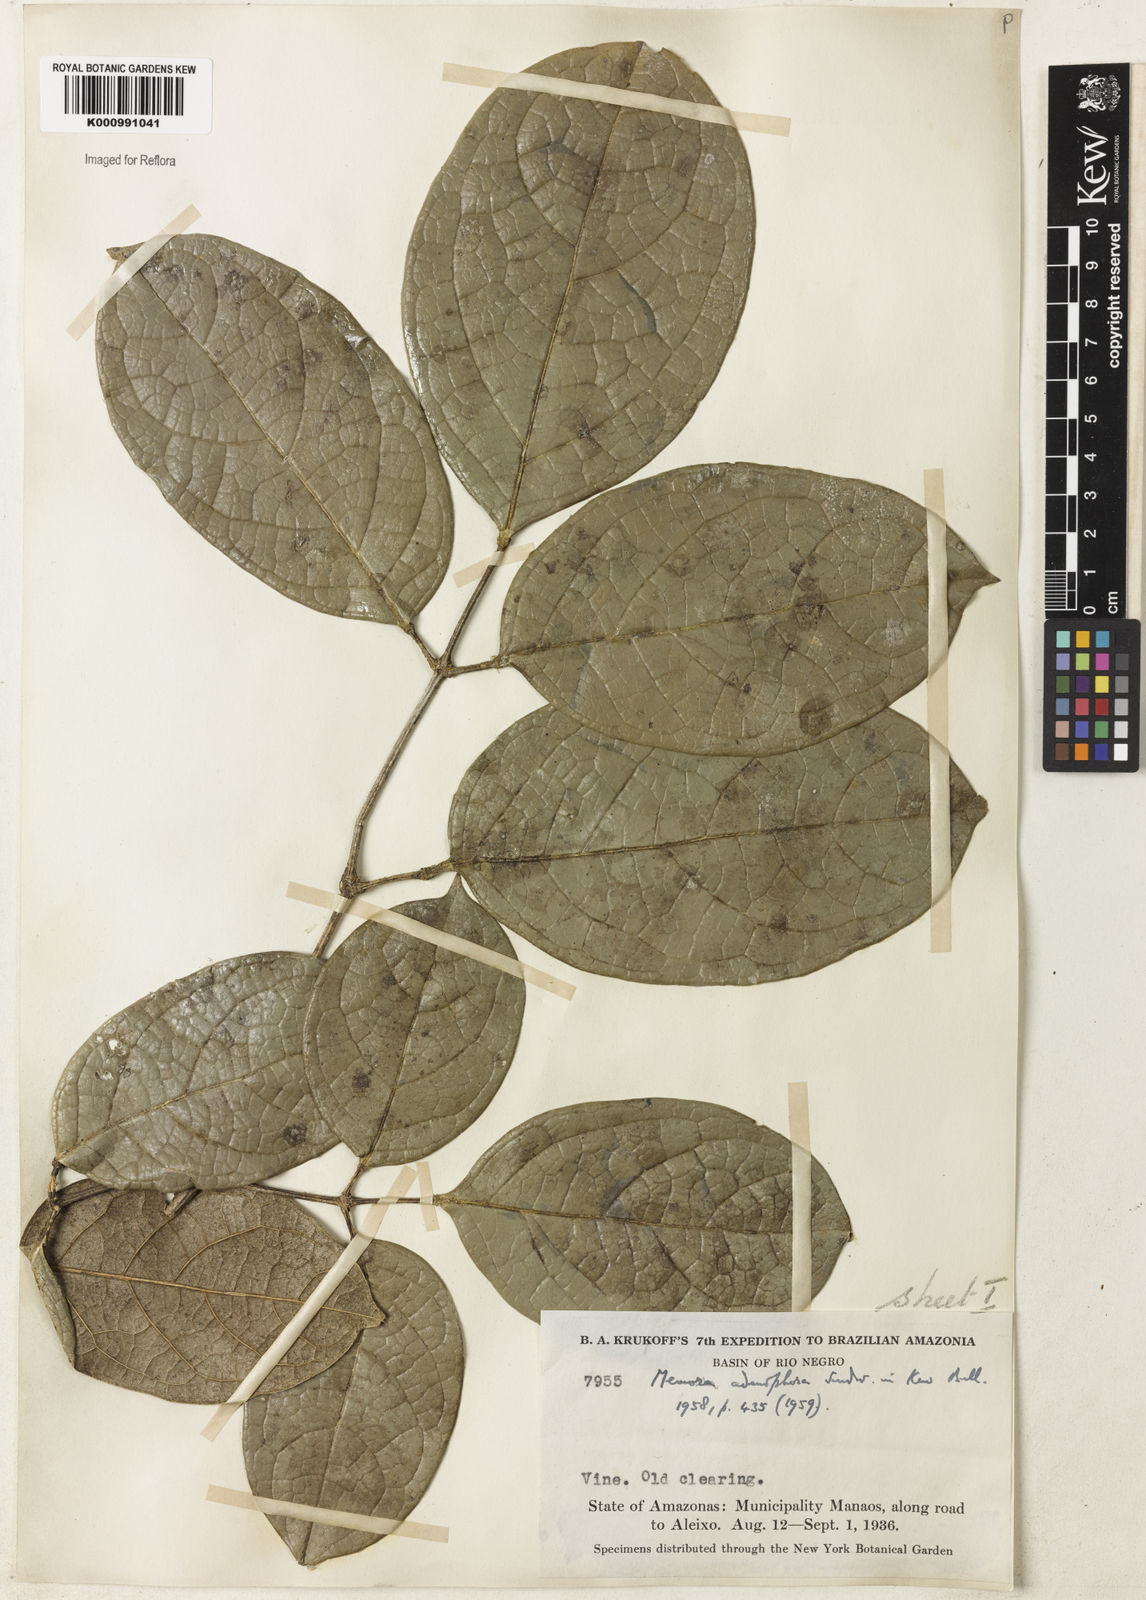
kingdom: Plantae
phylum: Tracheophyta
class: Magnoliopsida
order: Lamiales
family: Bignoniaceae
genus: Adenocalymma
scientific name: Adenocalymma adenophorum
